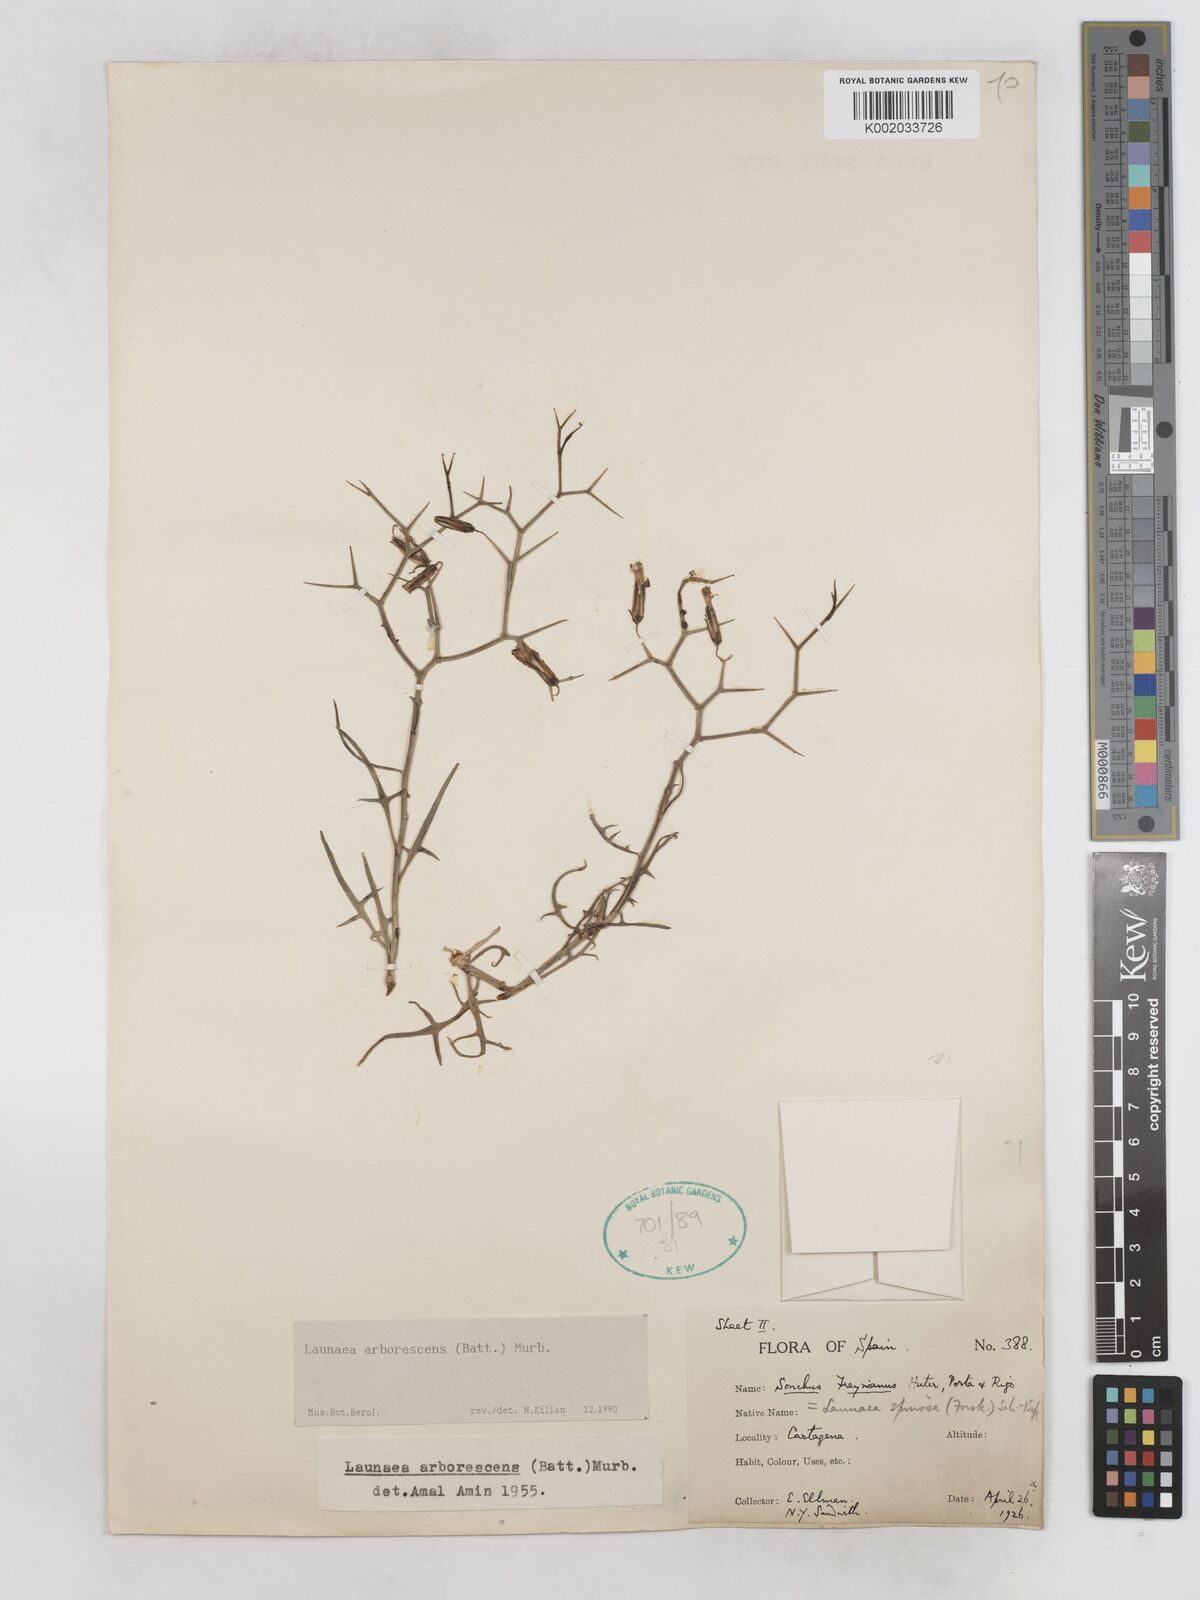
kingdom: Plantae
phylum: Tracheophyta
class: Magnoliopsida
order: Asterales
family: Asteraceae
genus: Launaea
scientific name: Launaea arborescens
